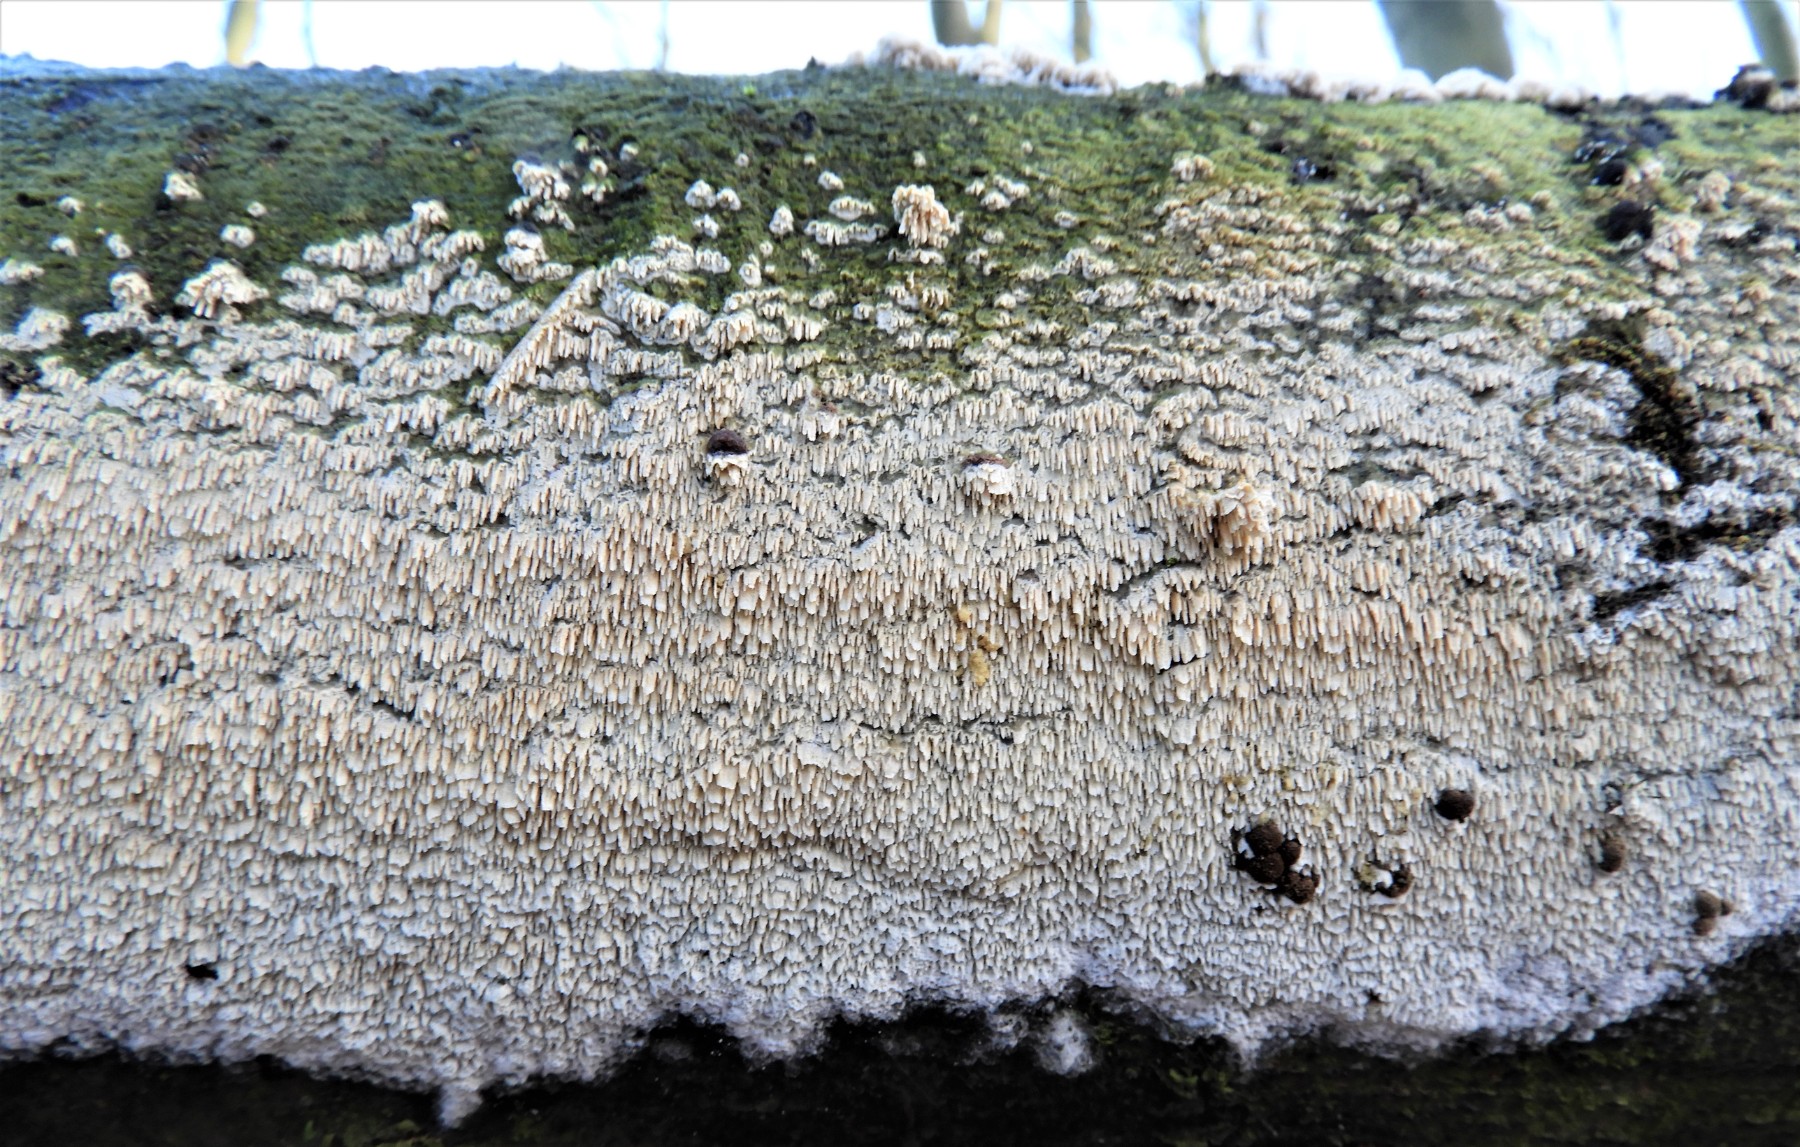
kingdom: Fungi
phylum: Basidiomycota
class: Agaricomycetes
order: Hymenochaetales
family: Schizoporaceae
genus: Schizopora
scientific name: Schizopora paradoxa
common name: hvid tandsvamp
